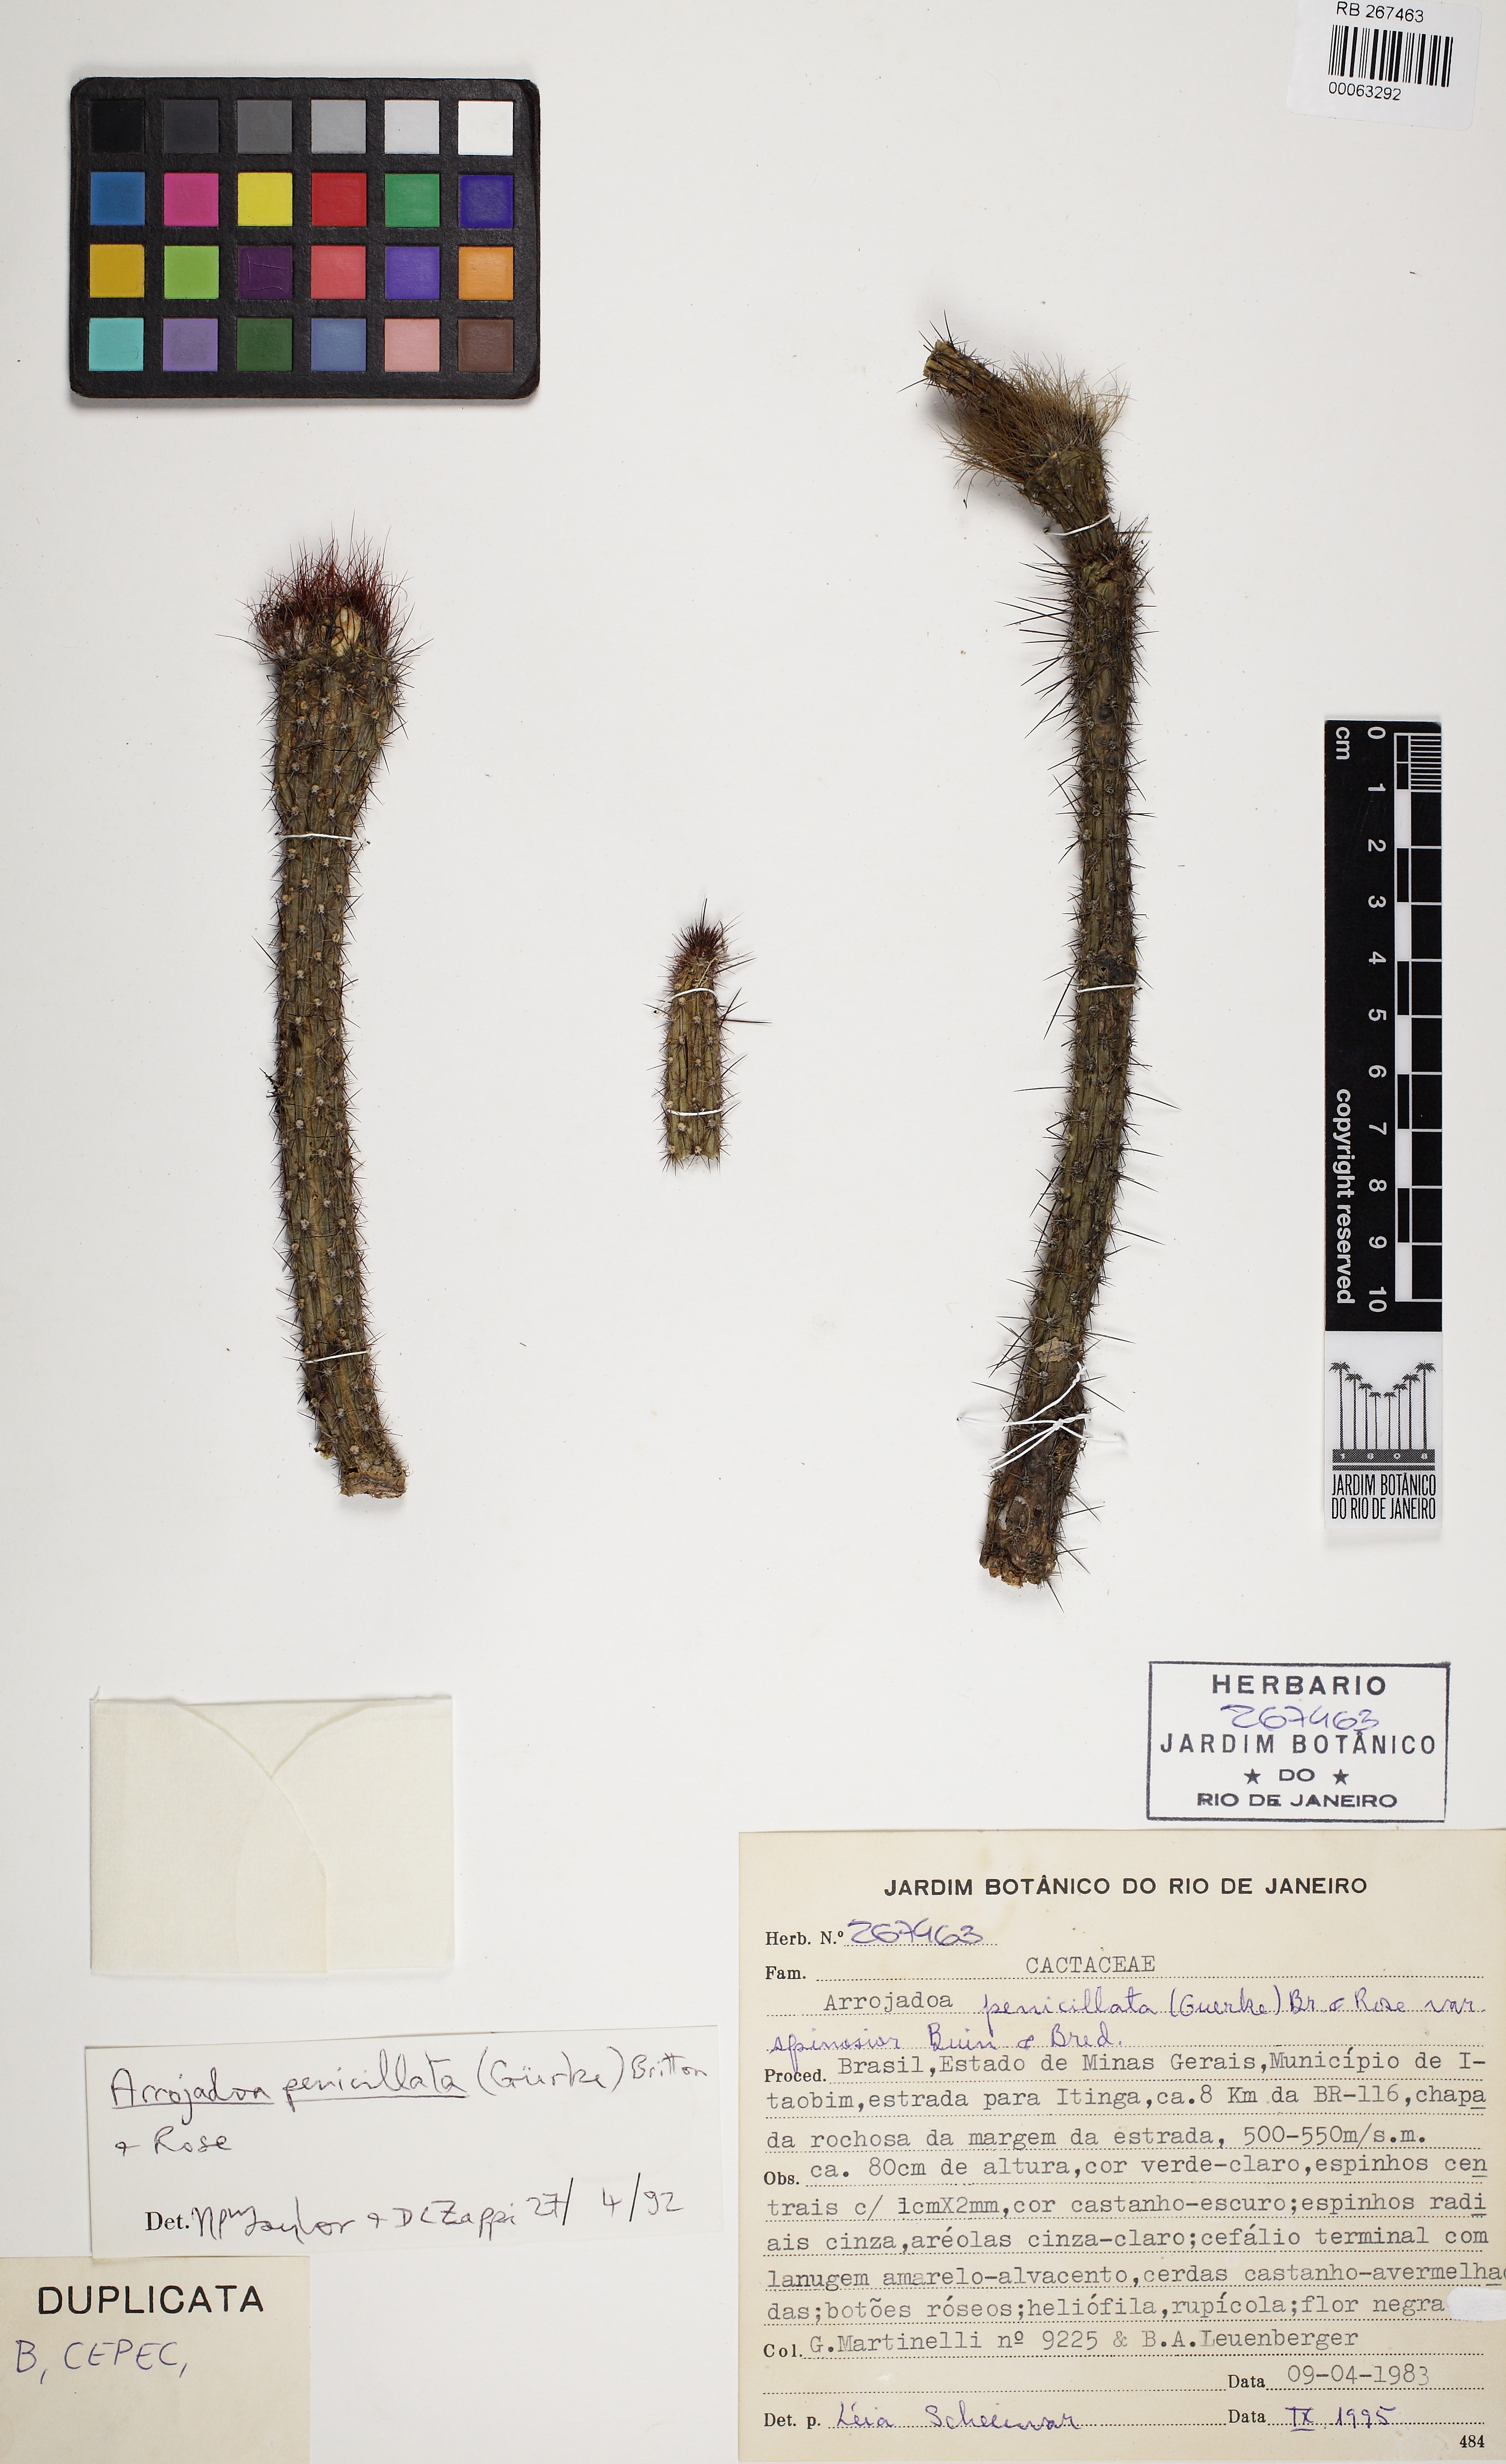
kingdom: Plantae
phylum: Tracheophyta
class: Magnoliopsida
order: Caryophyllales
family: Cactaceae
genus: Arrojadoa
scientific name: Arrojadoa penicillata
